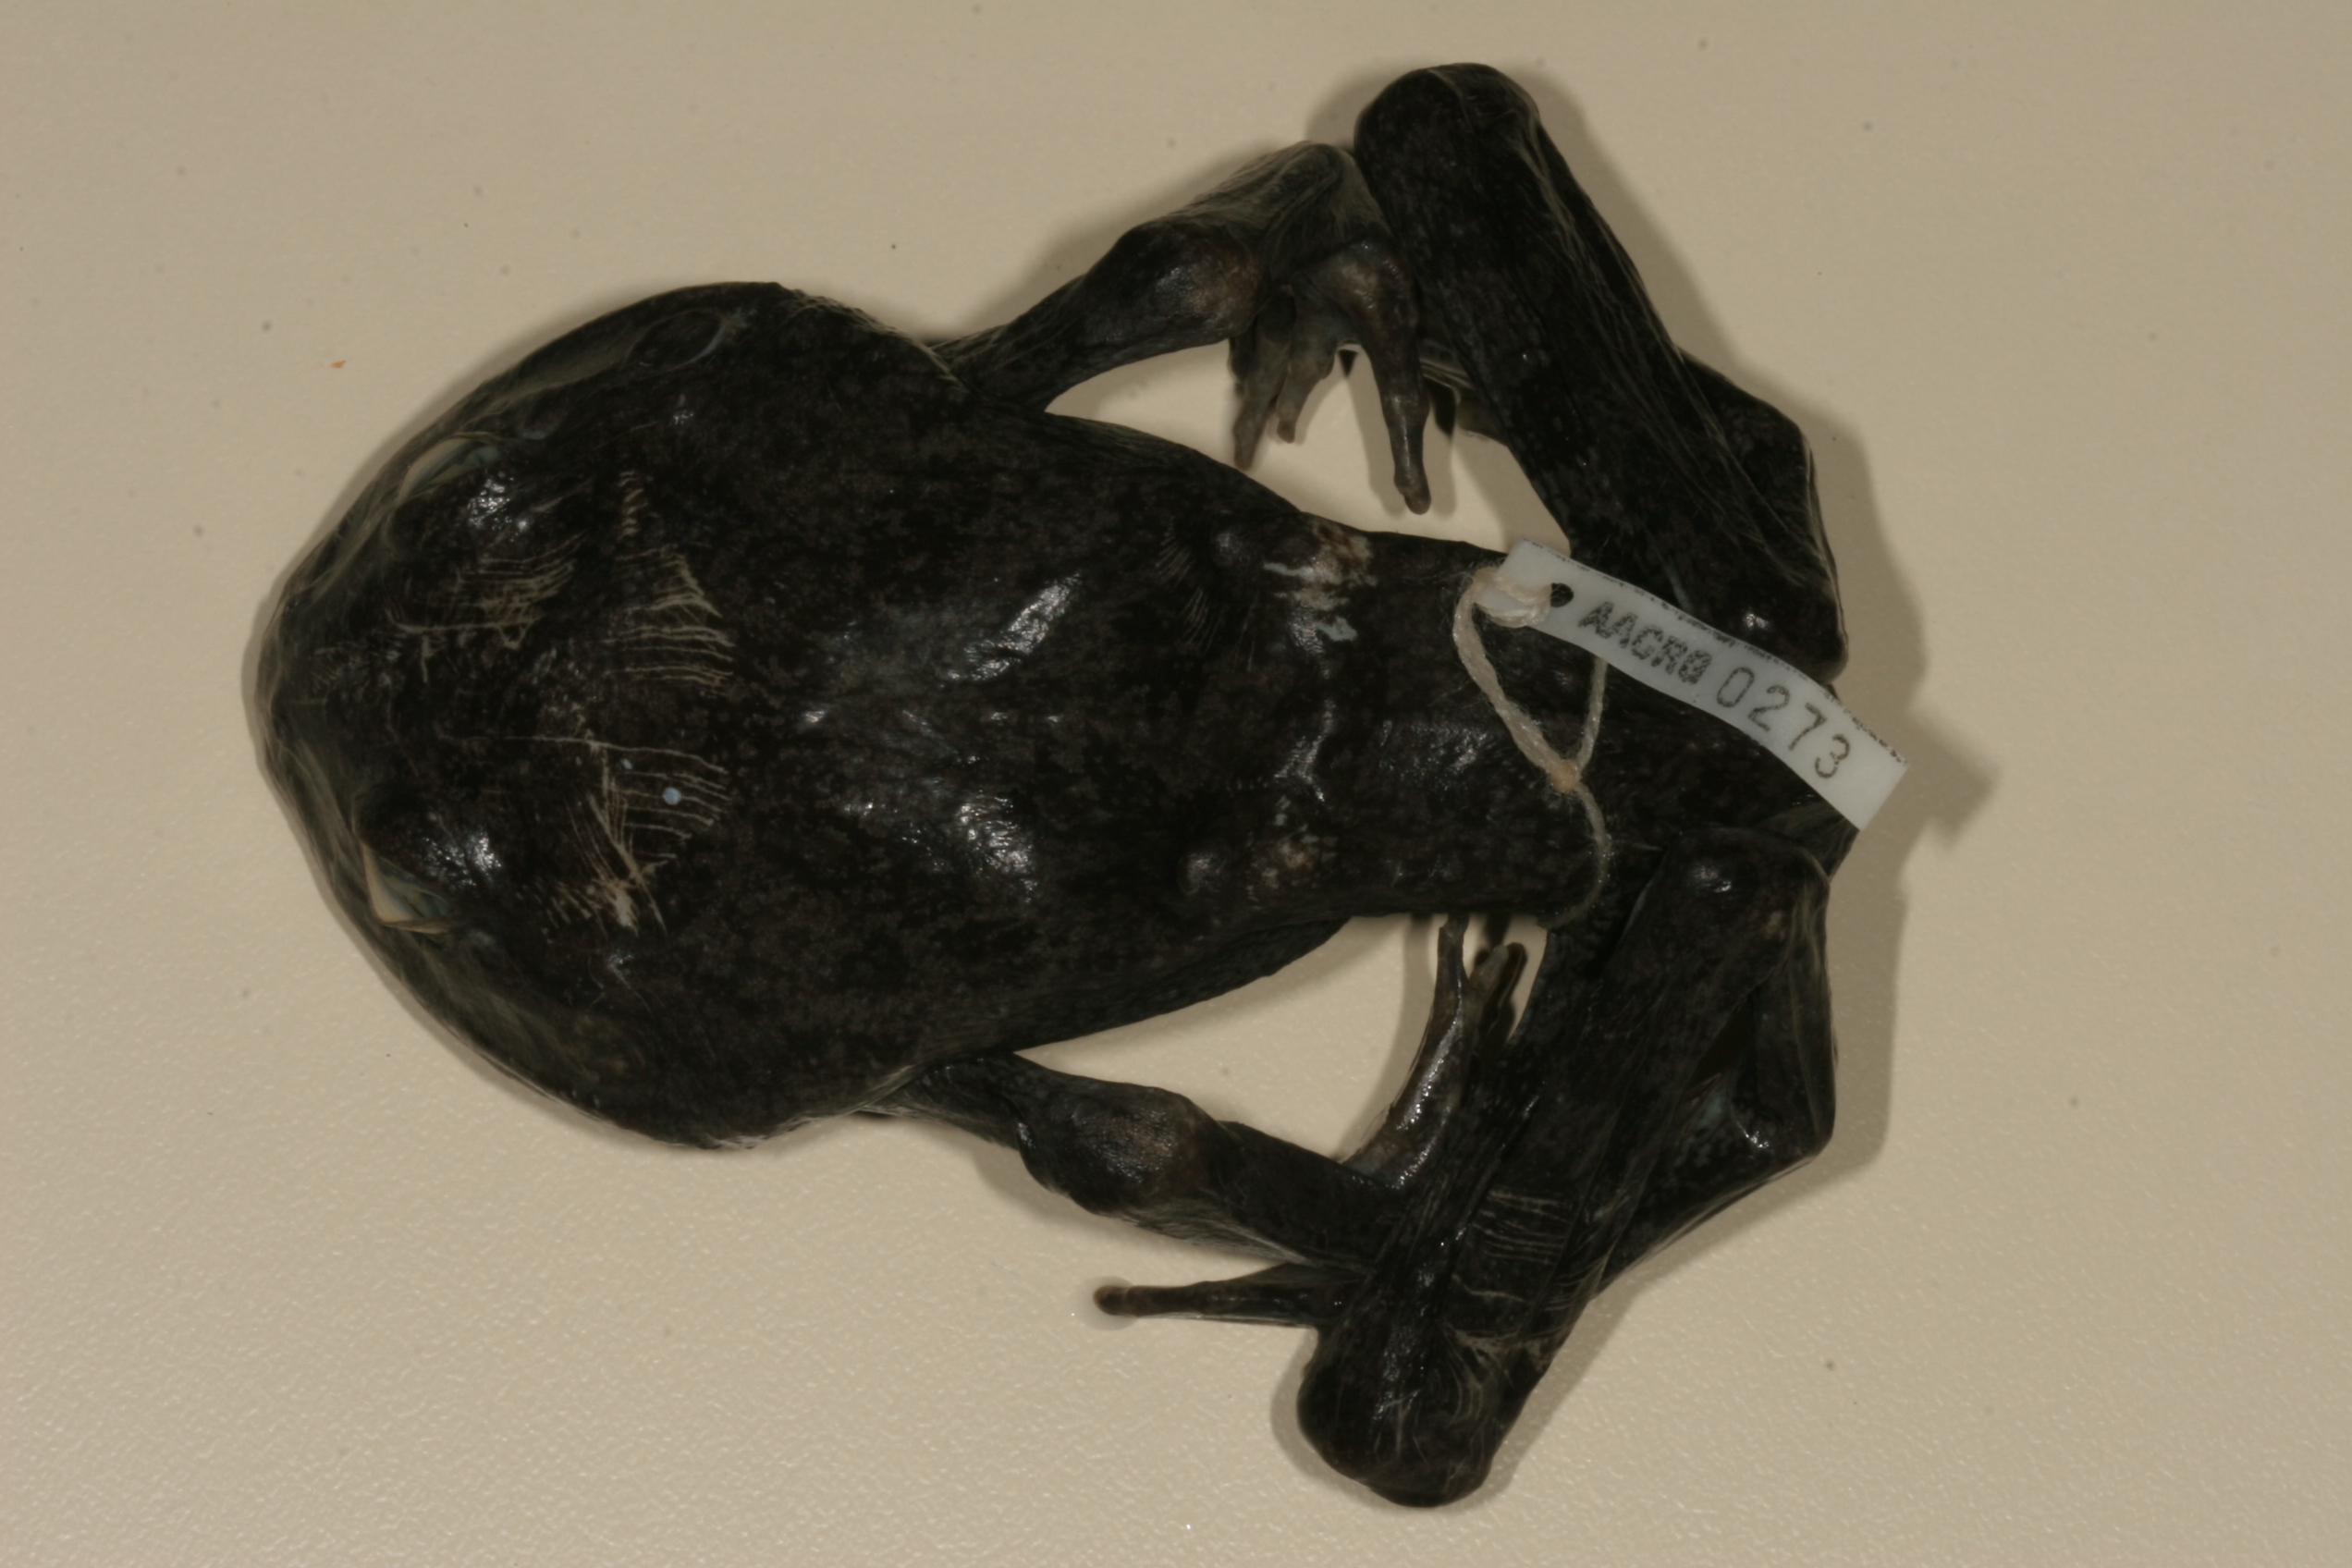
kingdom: Animalia
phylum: Chordata
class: Amphibia
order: Anura
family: Pyxicephalidae
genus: Amietia
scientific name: Amietia vertebralis
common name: Drakensberg stream frog
